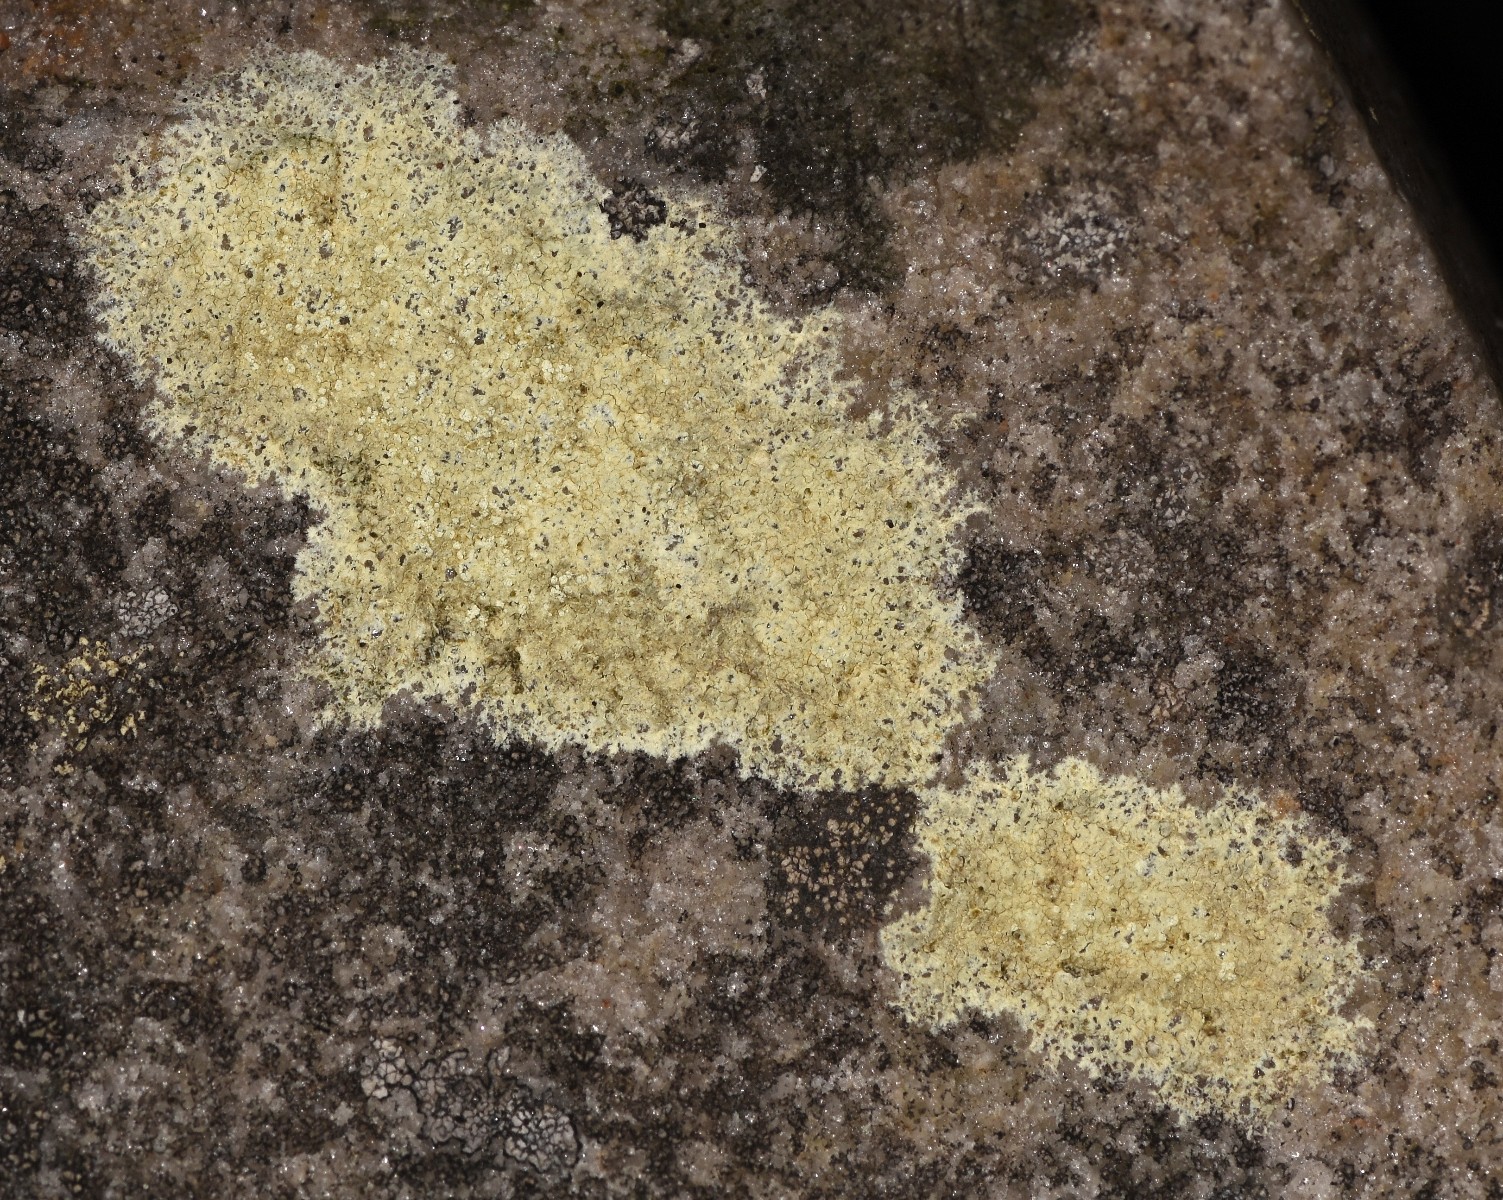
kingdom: Fungi
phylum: Ascomycota
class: Lecanoromycetes
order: Lecanorales
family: Lecanoraceae
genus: Glaucomaria
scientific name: Glaucomaria sulphurea
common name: svovlgul kantskivelav
